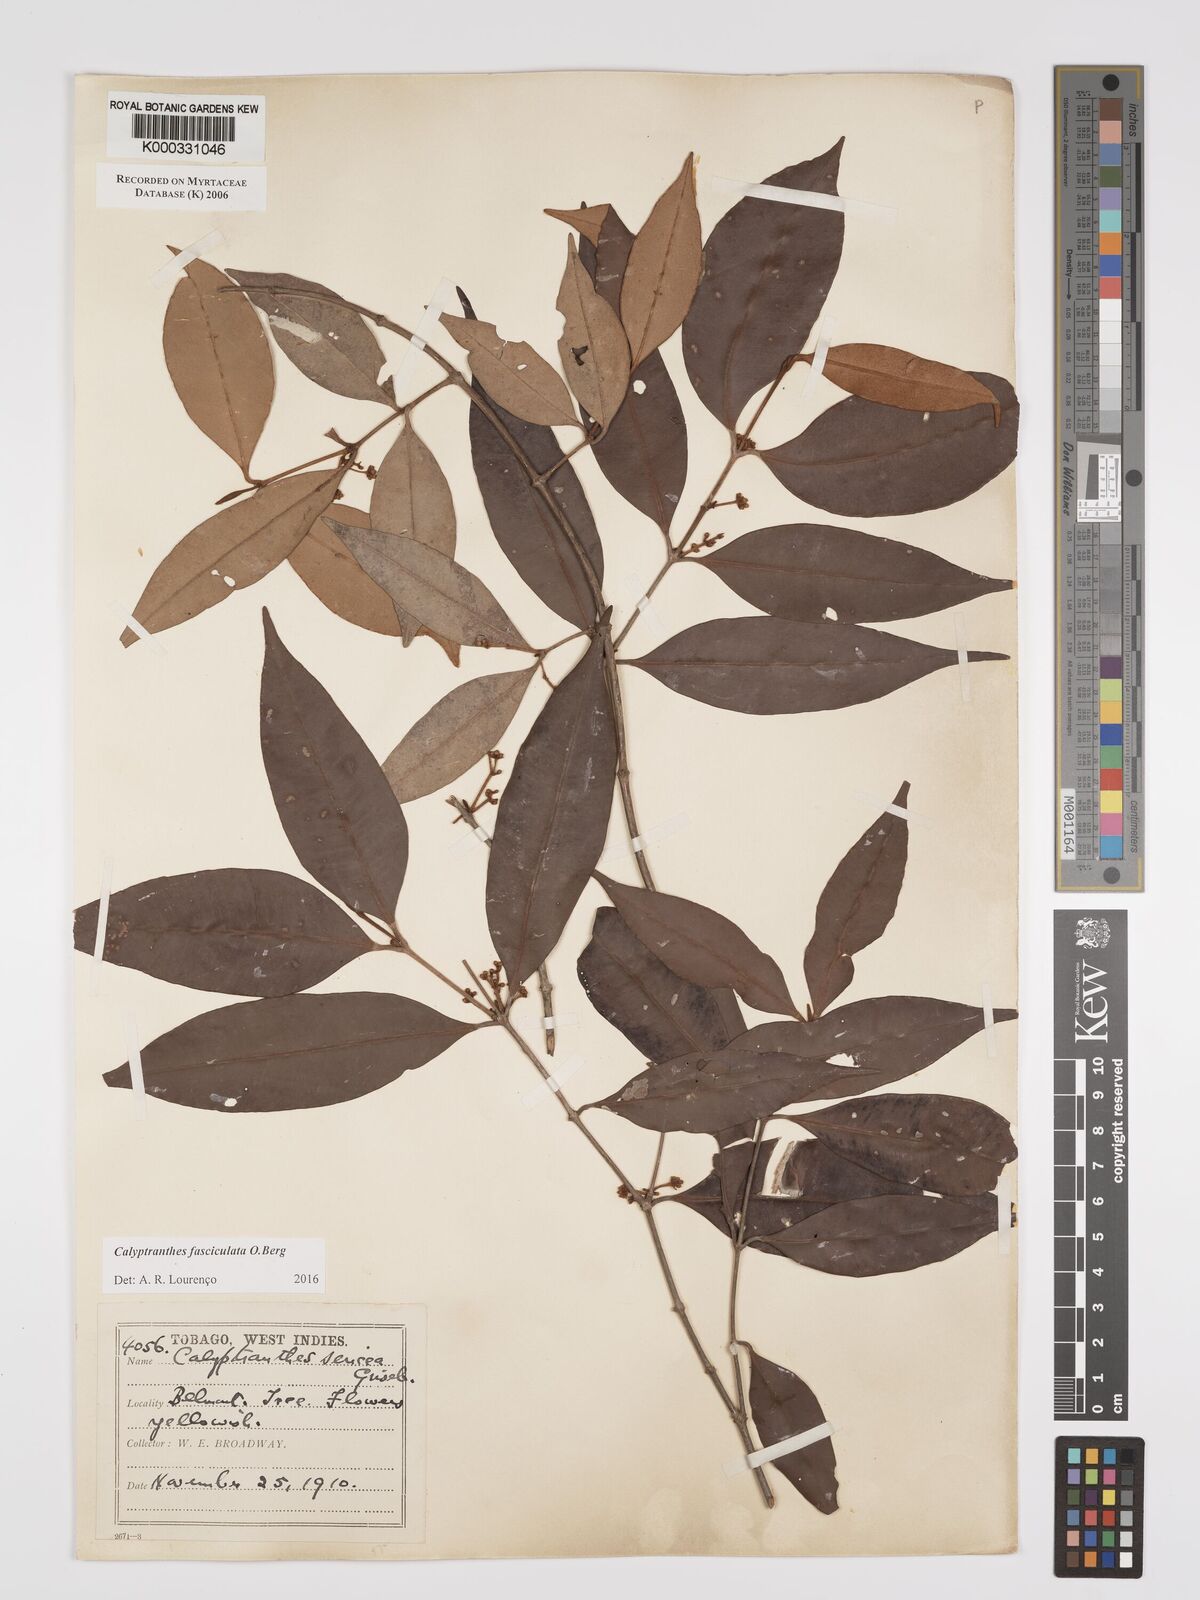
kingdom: Plantae
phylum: Tracheophyta
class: Magnoliopsida
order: Myrtales
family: Myrtaceae
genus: Myrcia
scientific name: Myrcia fasciculata
